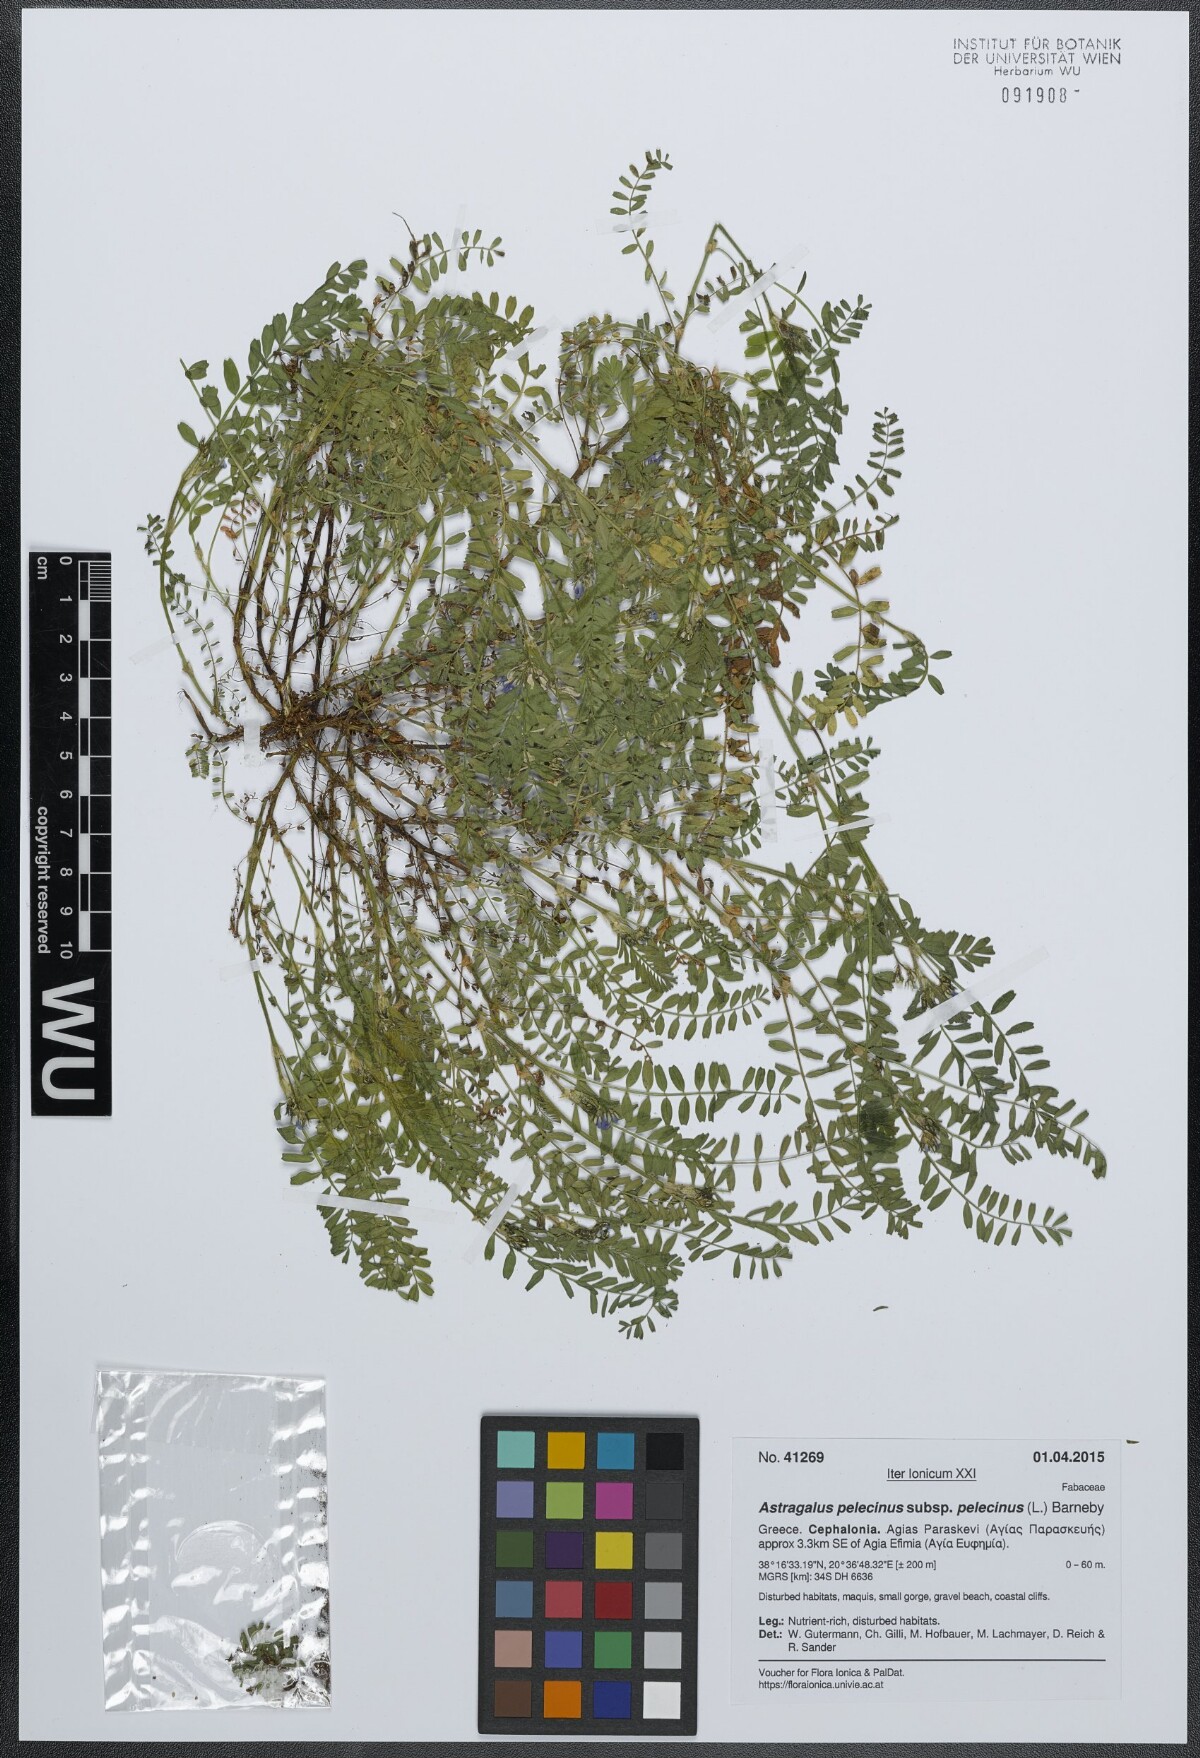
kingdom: Plantae
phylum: Tracheophyta
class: Magnoliopsida
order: Fabales
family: Fabaceae
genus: Biserrula
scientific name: Biserrula pelecinus
